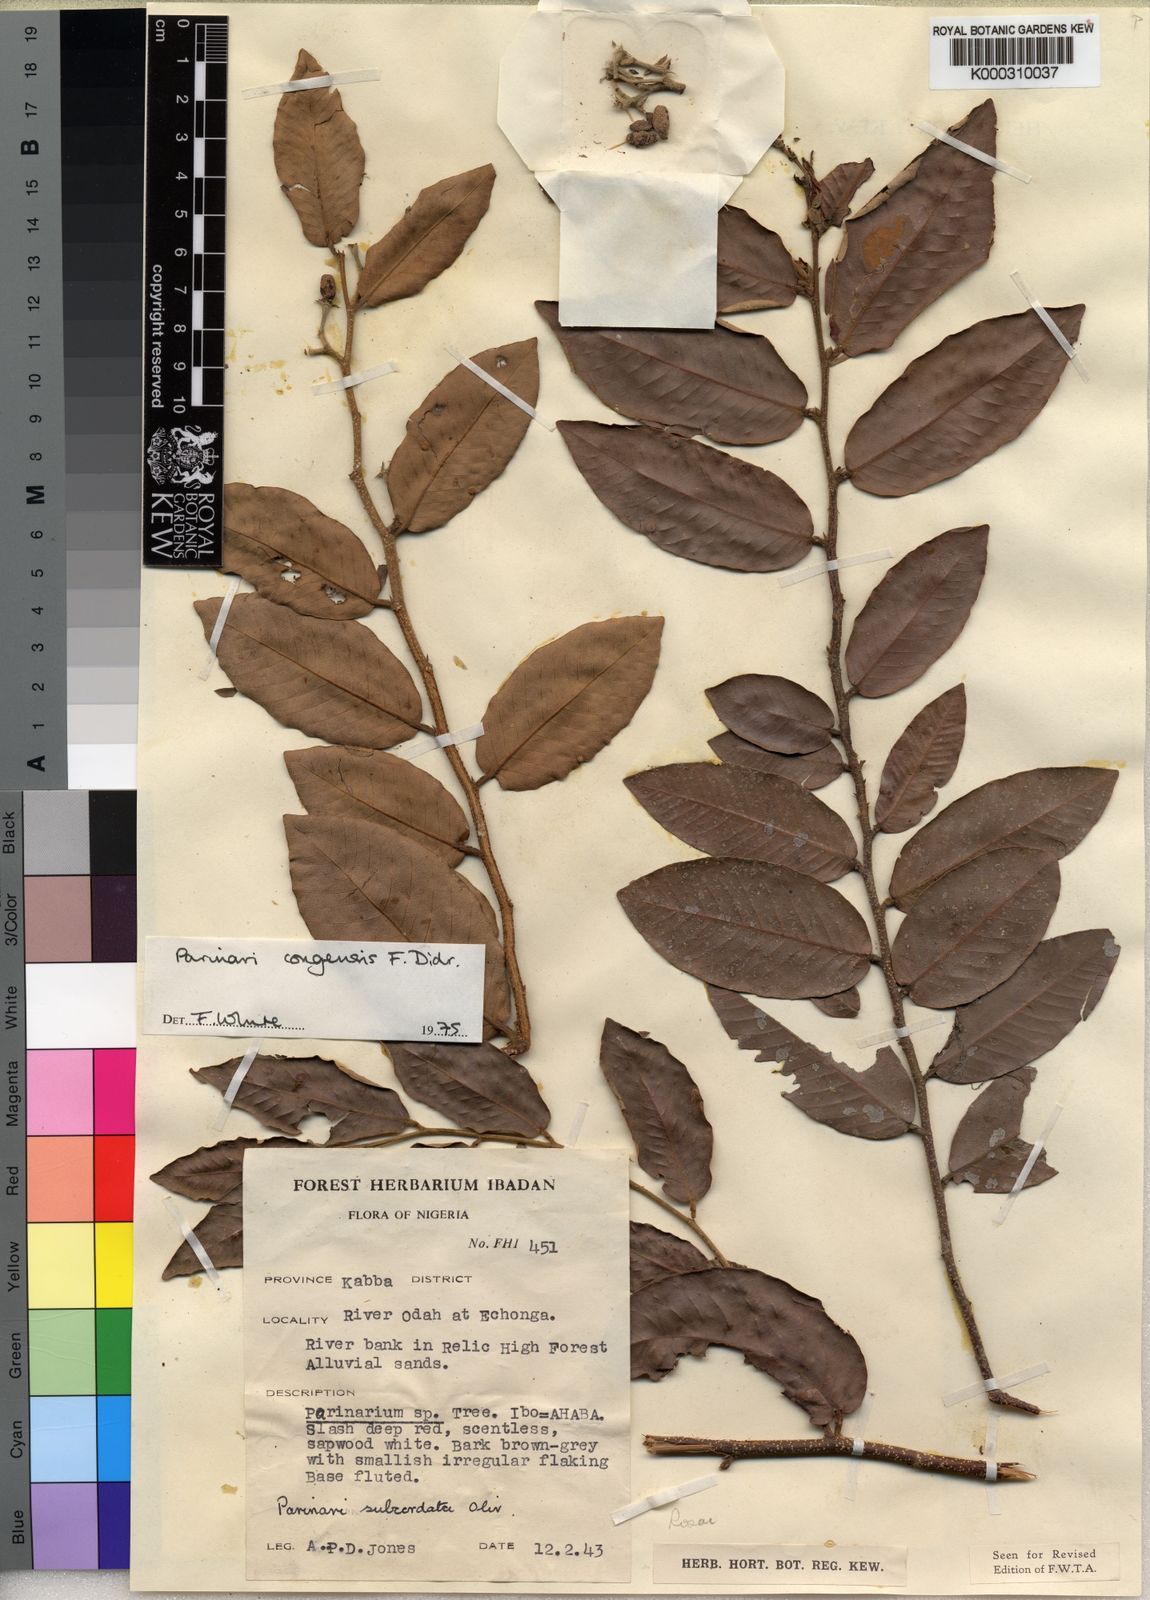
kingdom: Plantae
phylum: Tracheophyta
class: Magnoliopsida
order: Malpighiales
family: Chrysobalanaceae
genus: Parinari
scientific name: Parinari congensis
